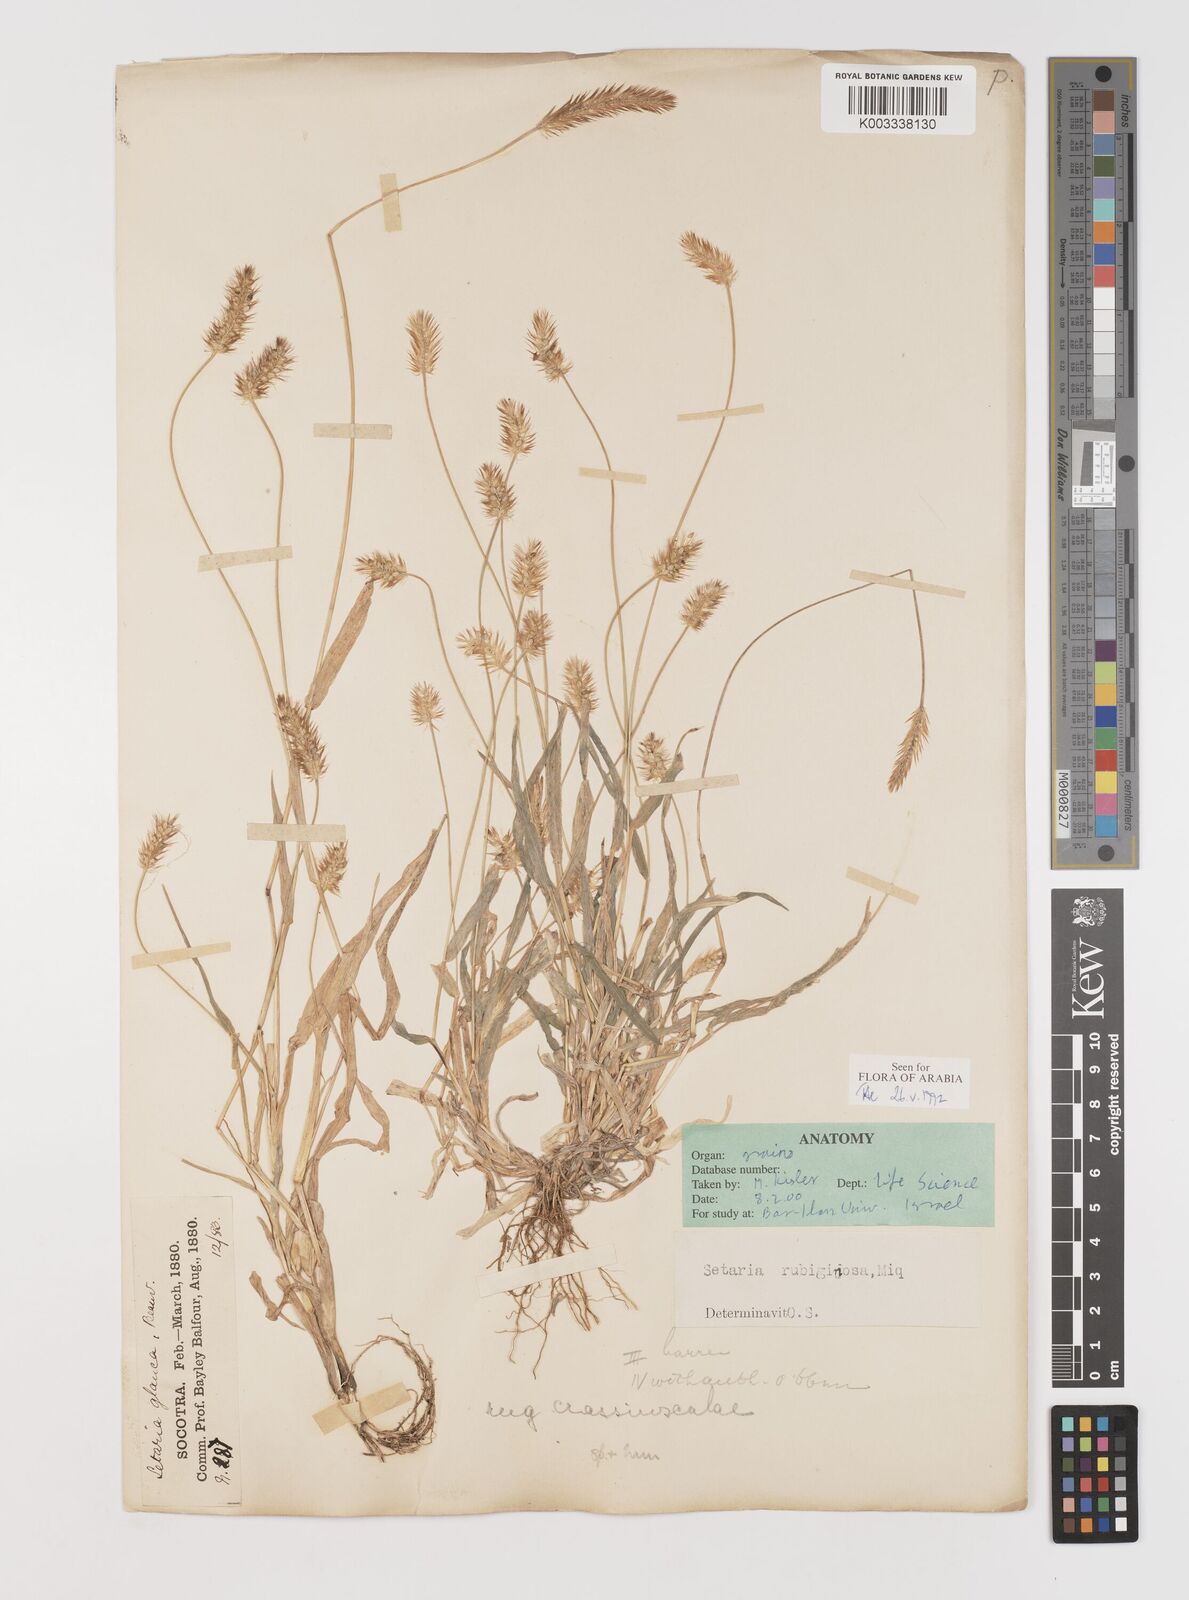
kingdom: Plantae
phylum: Tracheophyta
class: Liliopsida
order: Poales
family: Poaceae
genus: Setaria
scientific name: Setaria pumila
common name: Yellow bristle-grass
